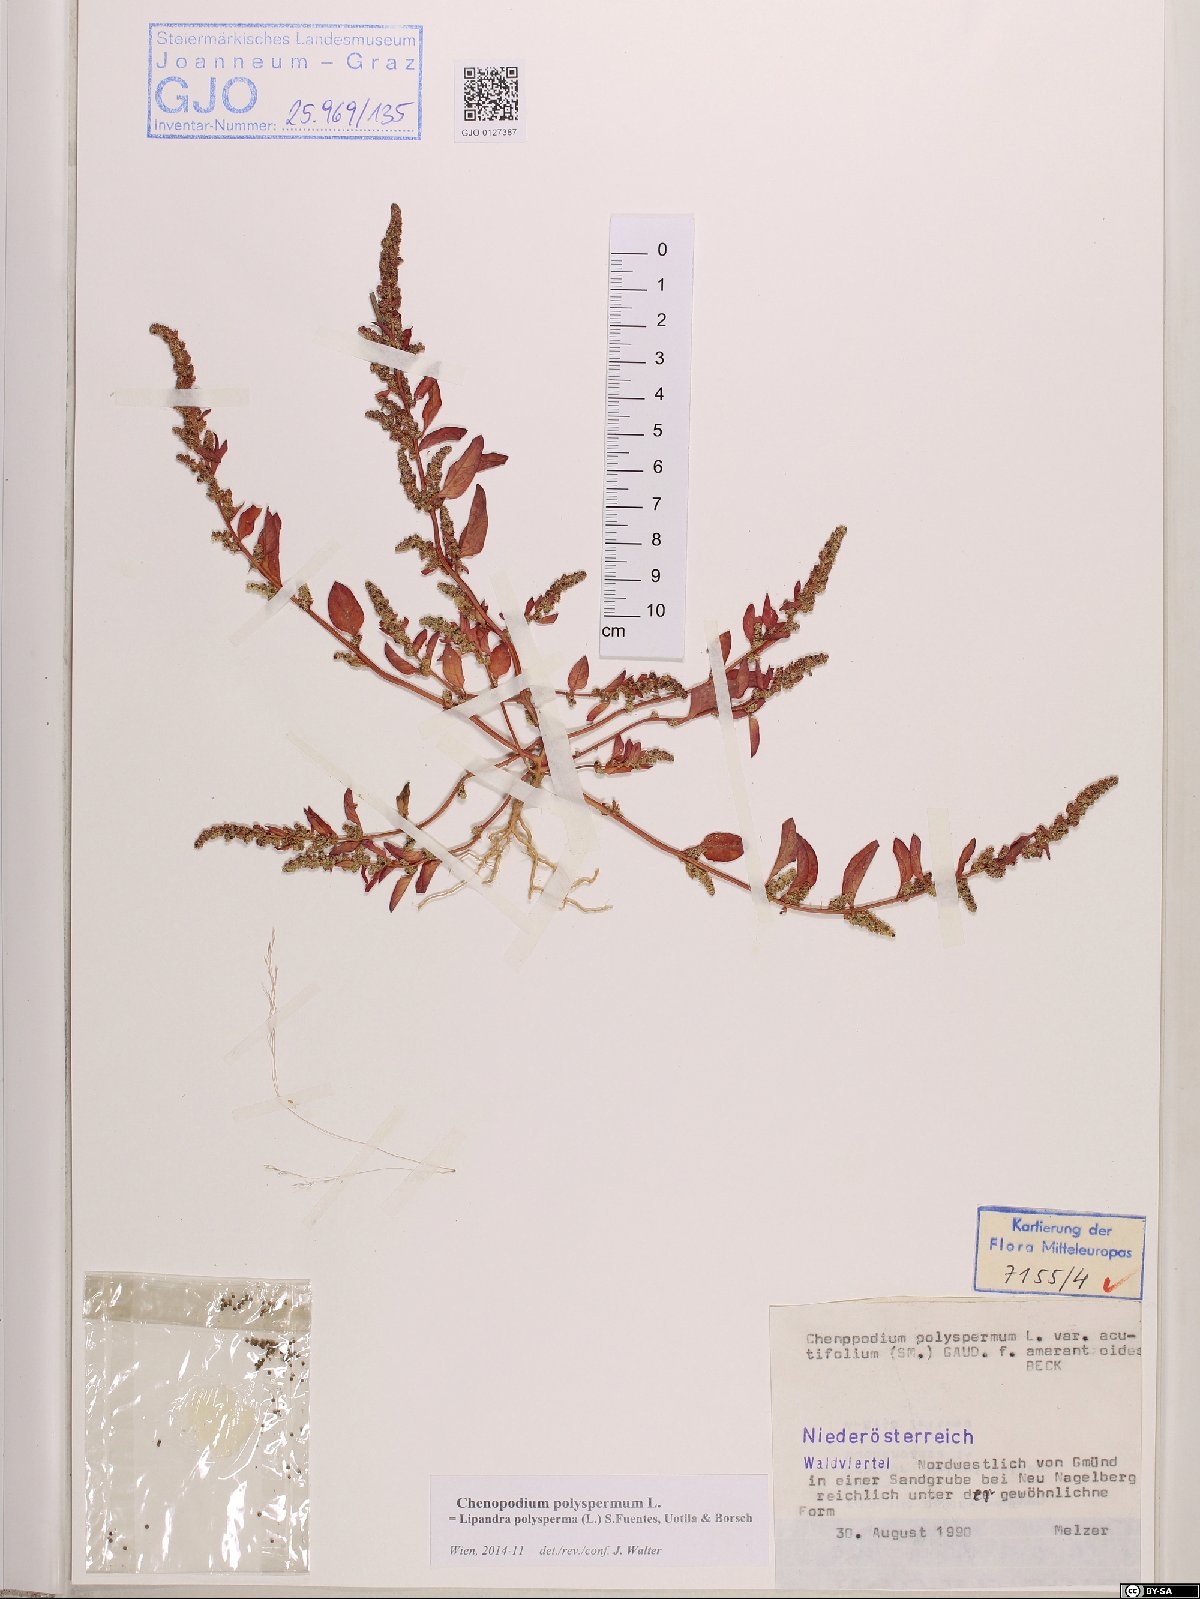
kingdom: Plantae
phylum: Tracheophyta
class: Magnoliopsida
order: Caryophyllales
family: Amaranthaceae
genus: Lipandra
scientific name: Lipandra polysperma
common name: Many-seed goosefoot
